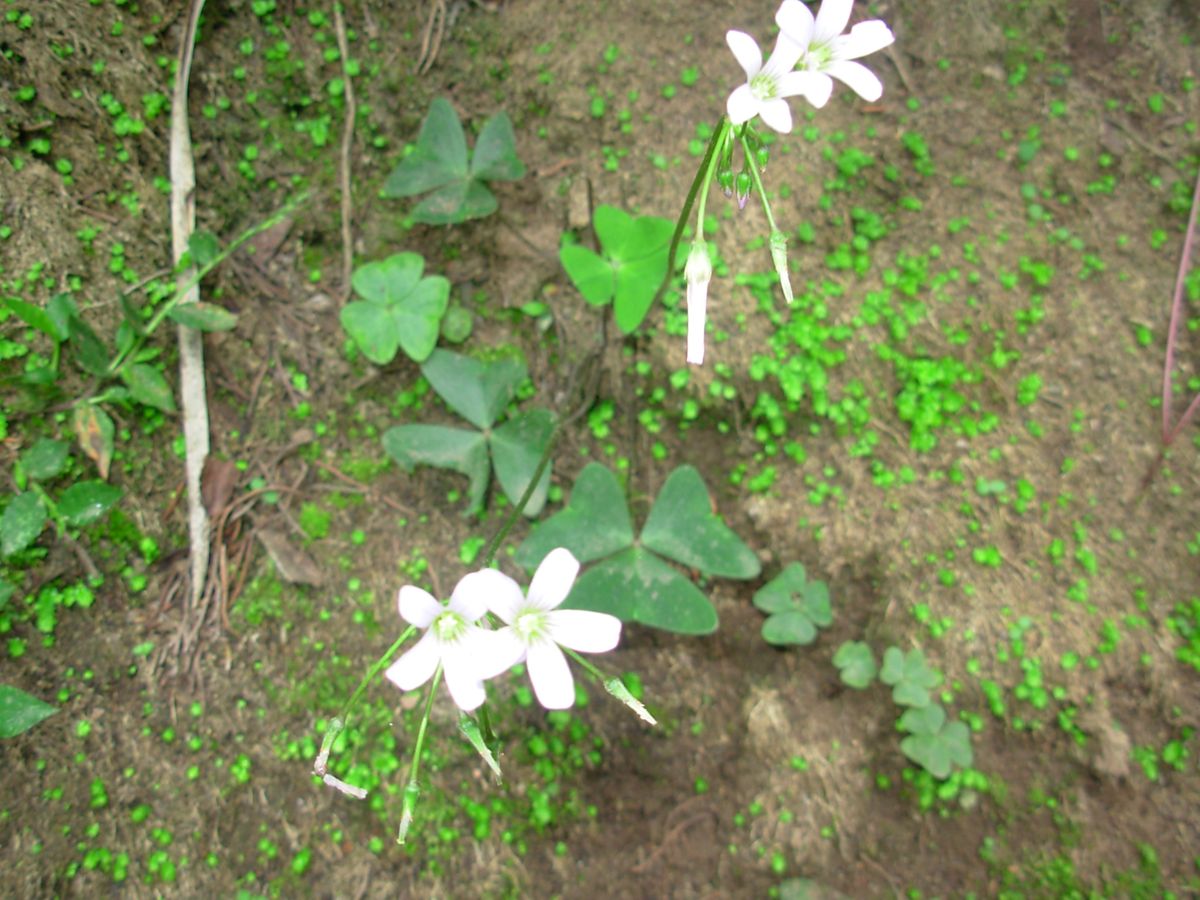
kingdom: Plantae
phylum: Tracheophyta
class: Magnoliopsida
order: Oxalidales
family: Oxalidaceae
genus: Oxalis
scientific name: Oxalis latifolia
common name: Garden pink-sorrel
